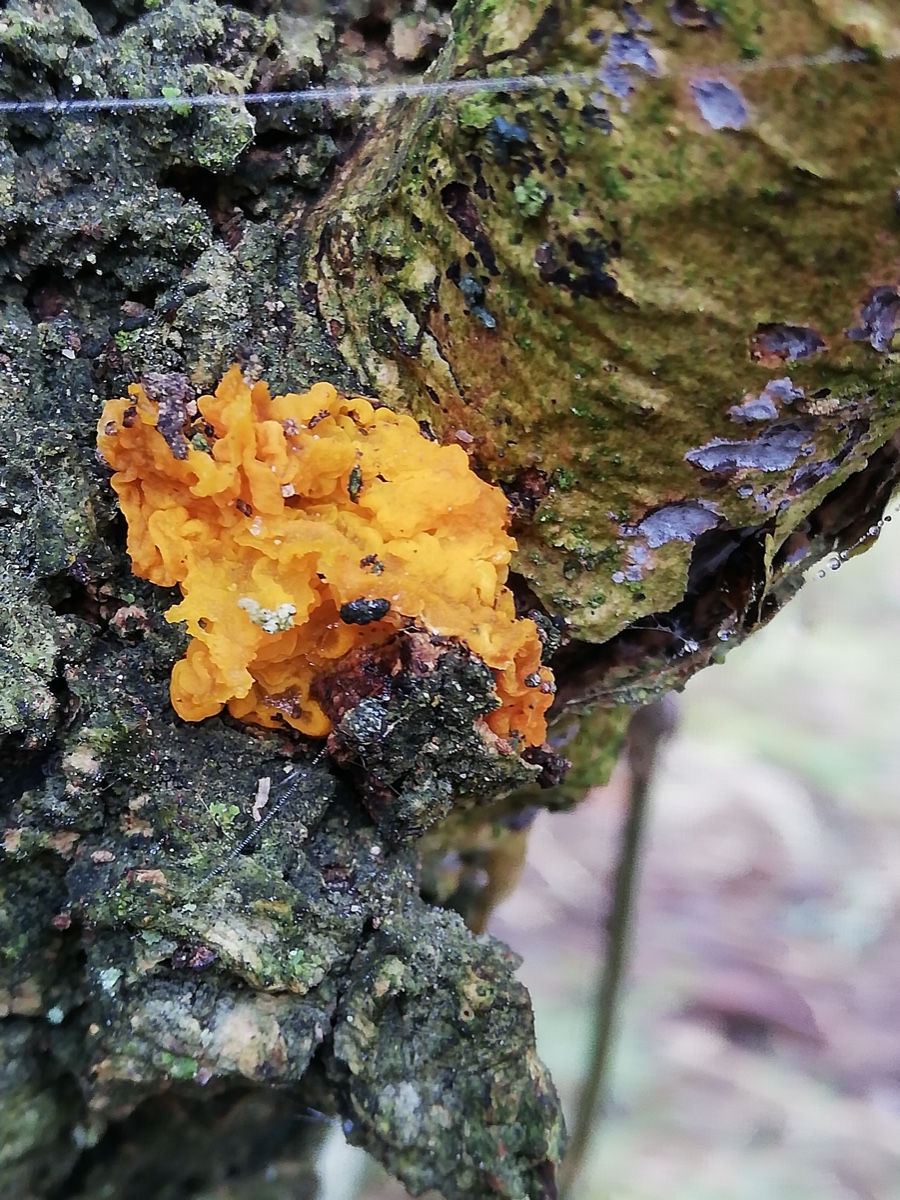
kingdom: Fungi
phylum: Basidiomycota
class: Tremellomycetes
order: Tremellales
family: Tremellaceae
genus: Tremella
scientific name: Tremella mesenterica
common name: gul bævresvamp
